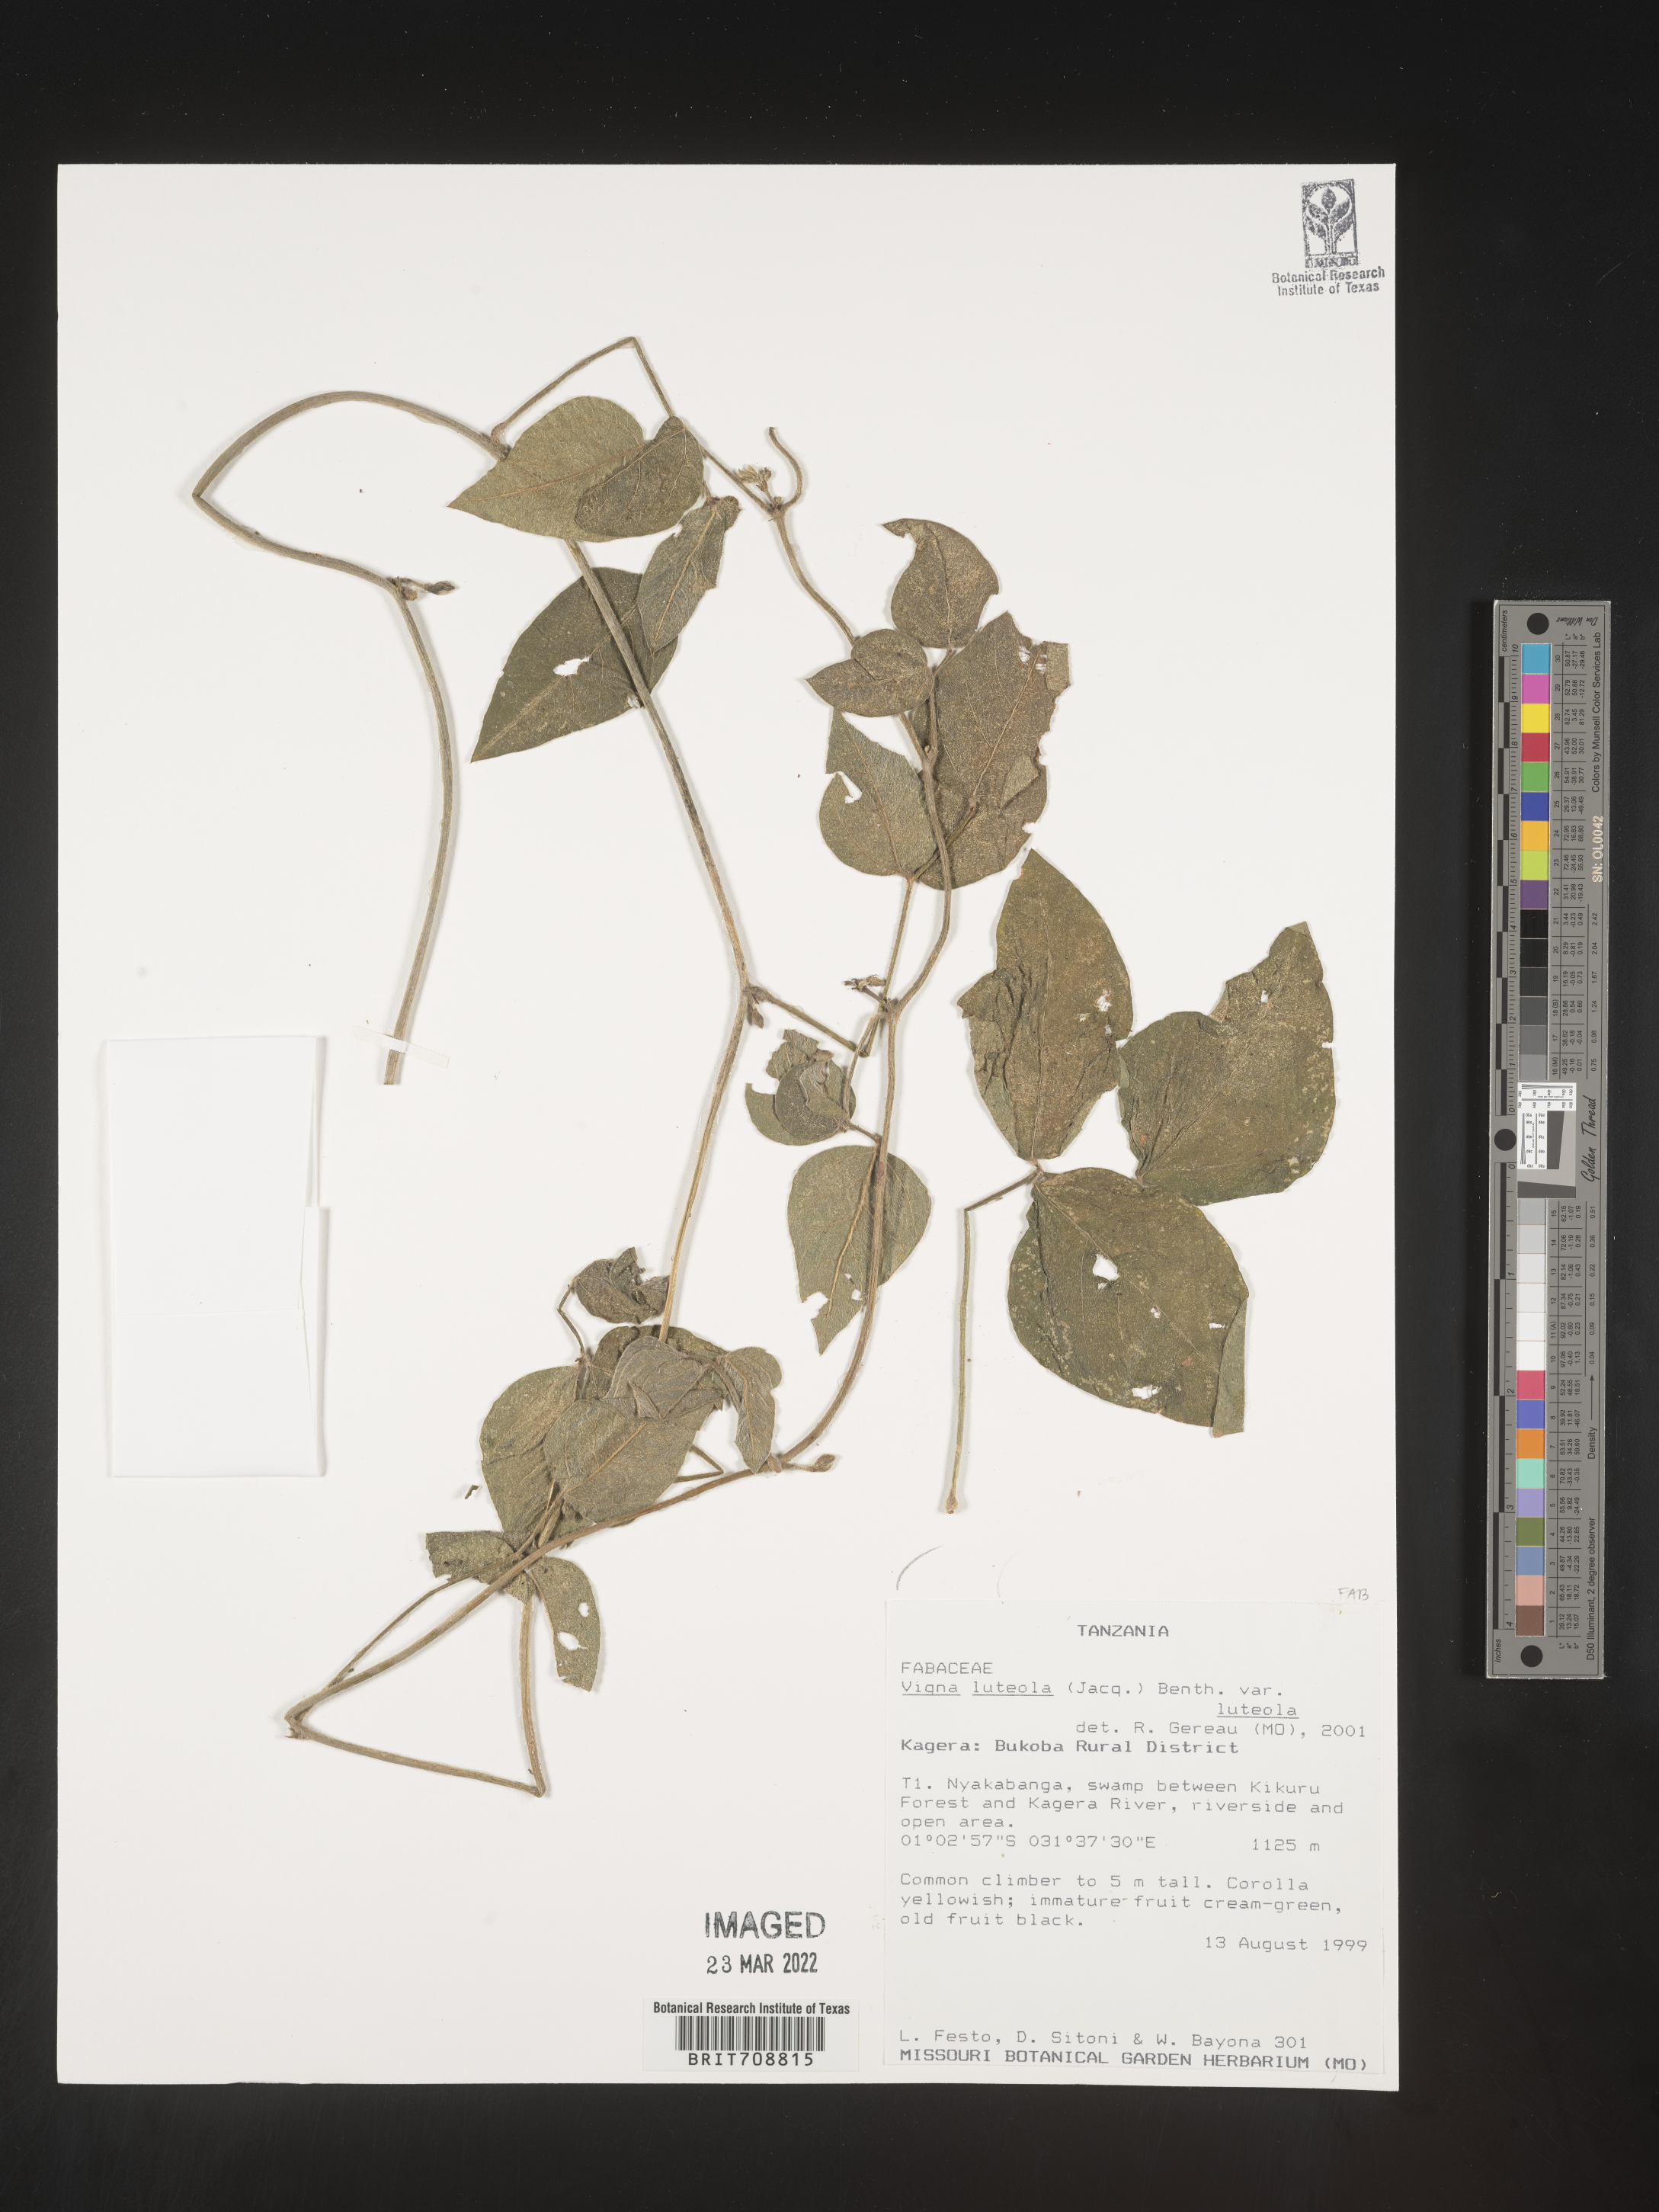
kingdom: Plantae
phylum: Tracheophyta
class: Magnoliopsida
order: Fabales
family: Fabaceae
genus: Vigna
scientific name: Vigna
